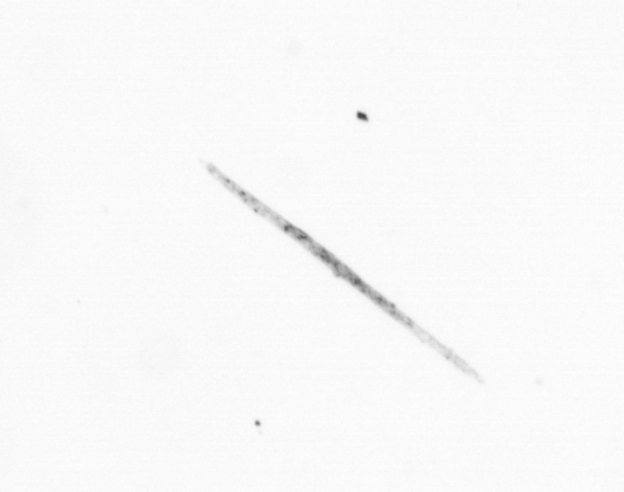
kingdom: Chromista
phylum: Ochrophyta
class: Bacillariophyceae
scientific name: Bacillariophyceae
